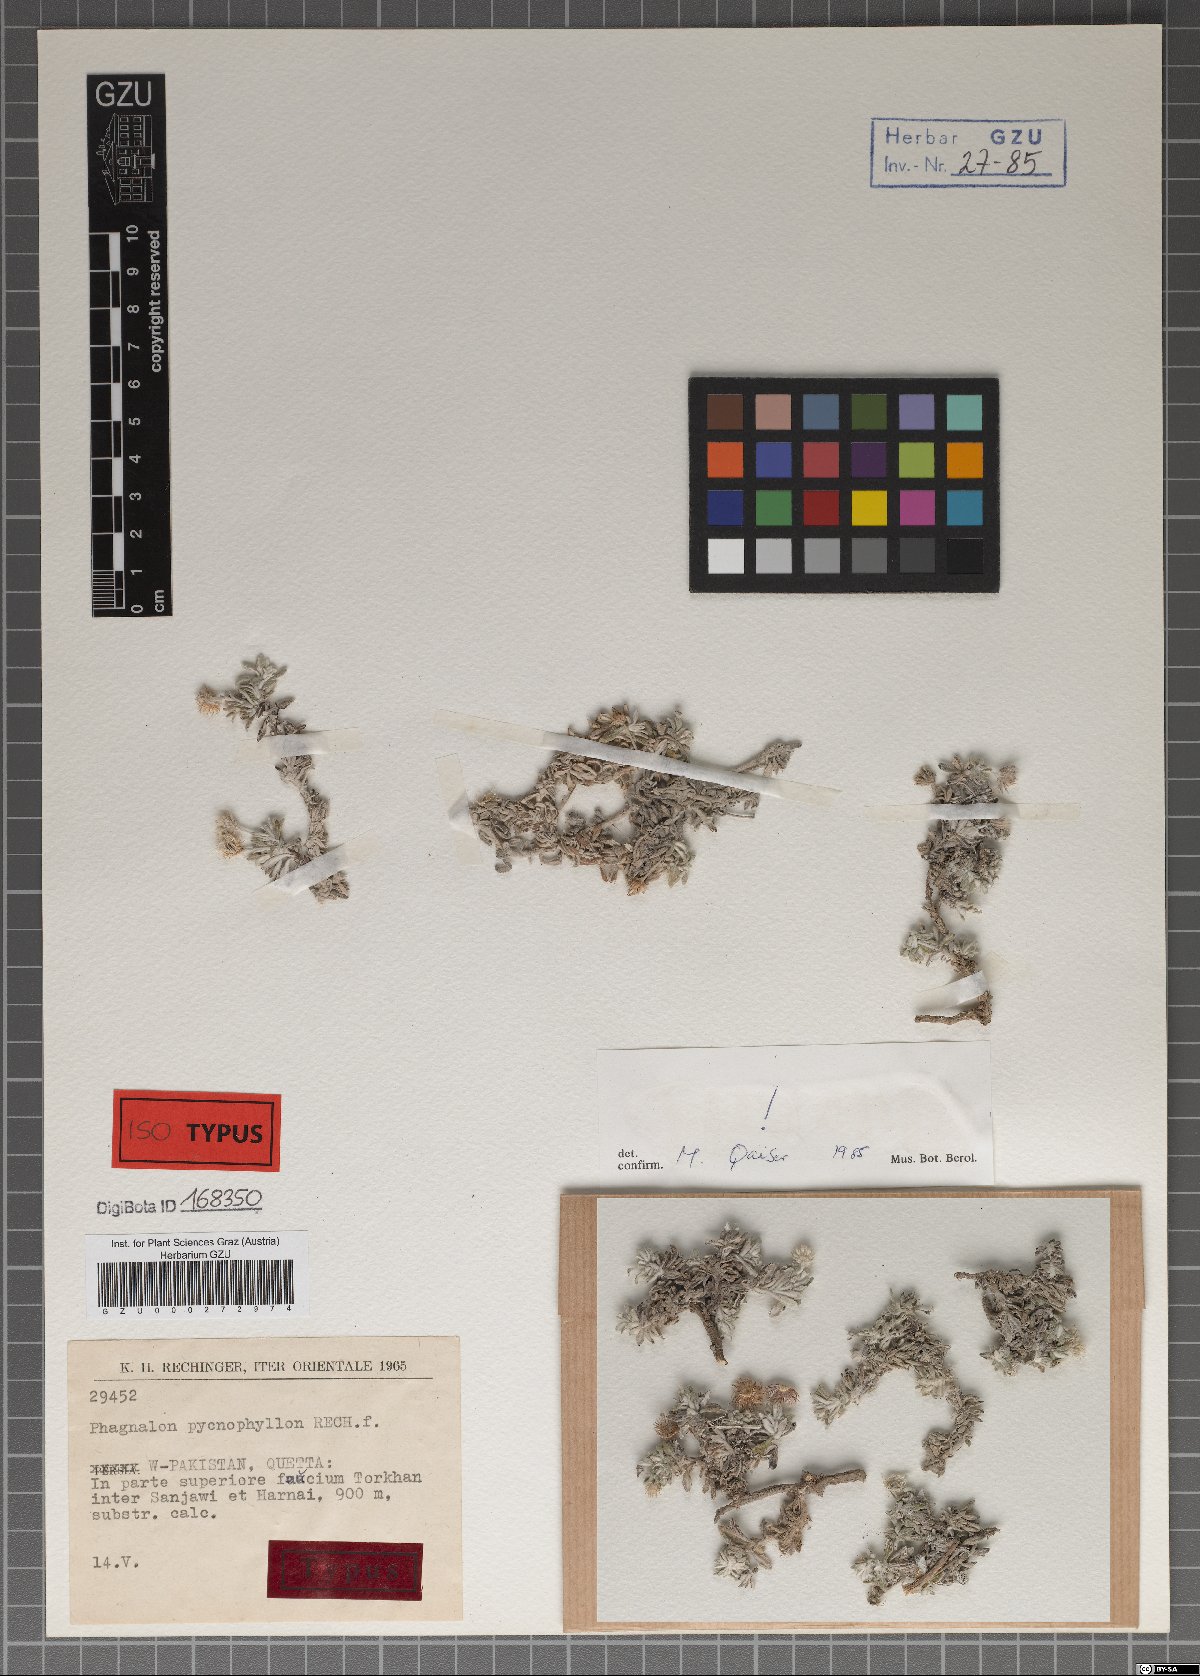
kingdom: Plantae
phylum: Tracheophyta
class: Magnoliopsida
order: Asterales
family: Asteraceae
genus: Phagnalon
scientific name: Phagnalon pycnophyllon
